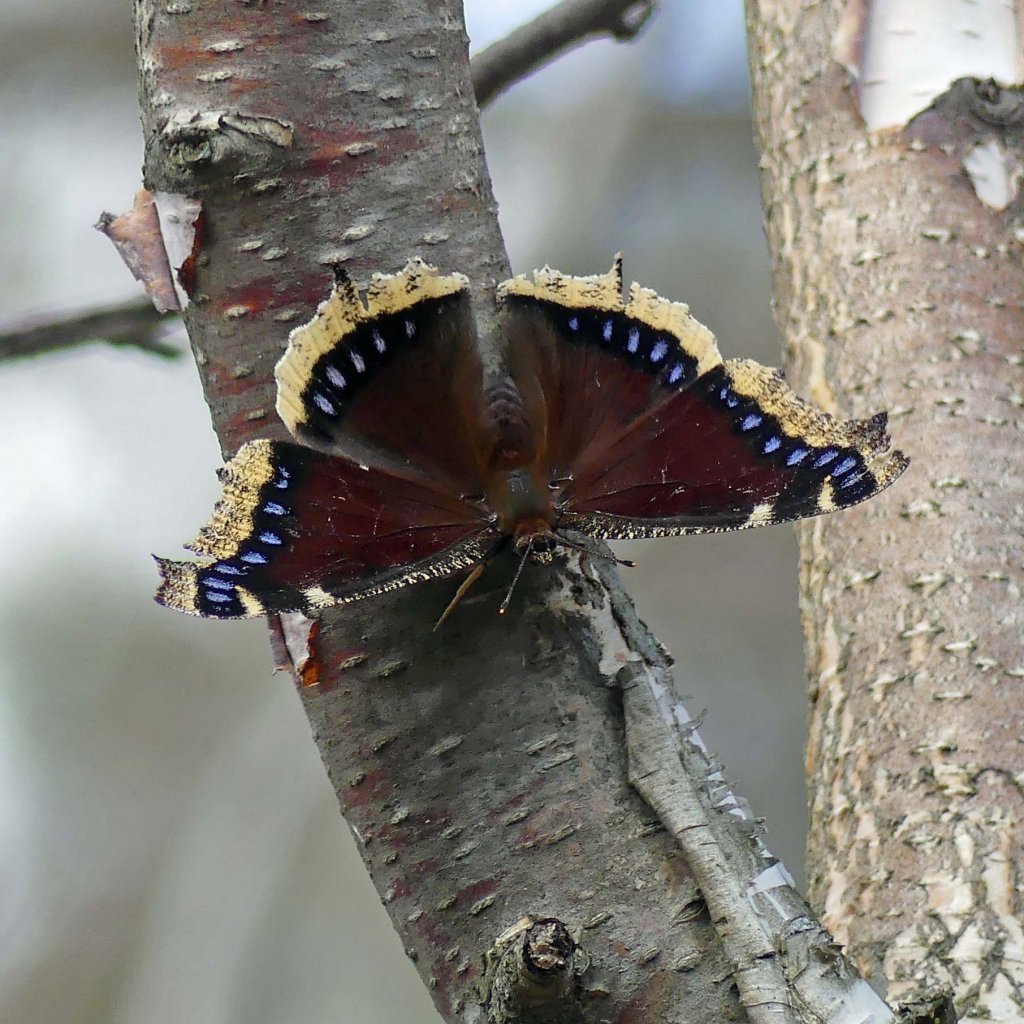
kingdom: Animalia
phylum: Arthropoda
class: Insecta
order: Lepidoptera
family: Nymphalidae
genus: Nymphalis
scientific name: Nymphalis antiopa
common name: Mourning Cloak
